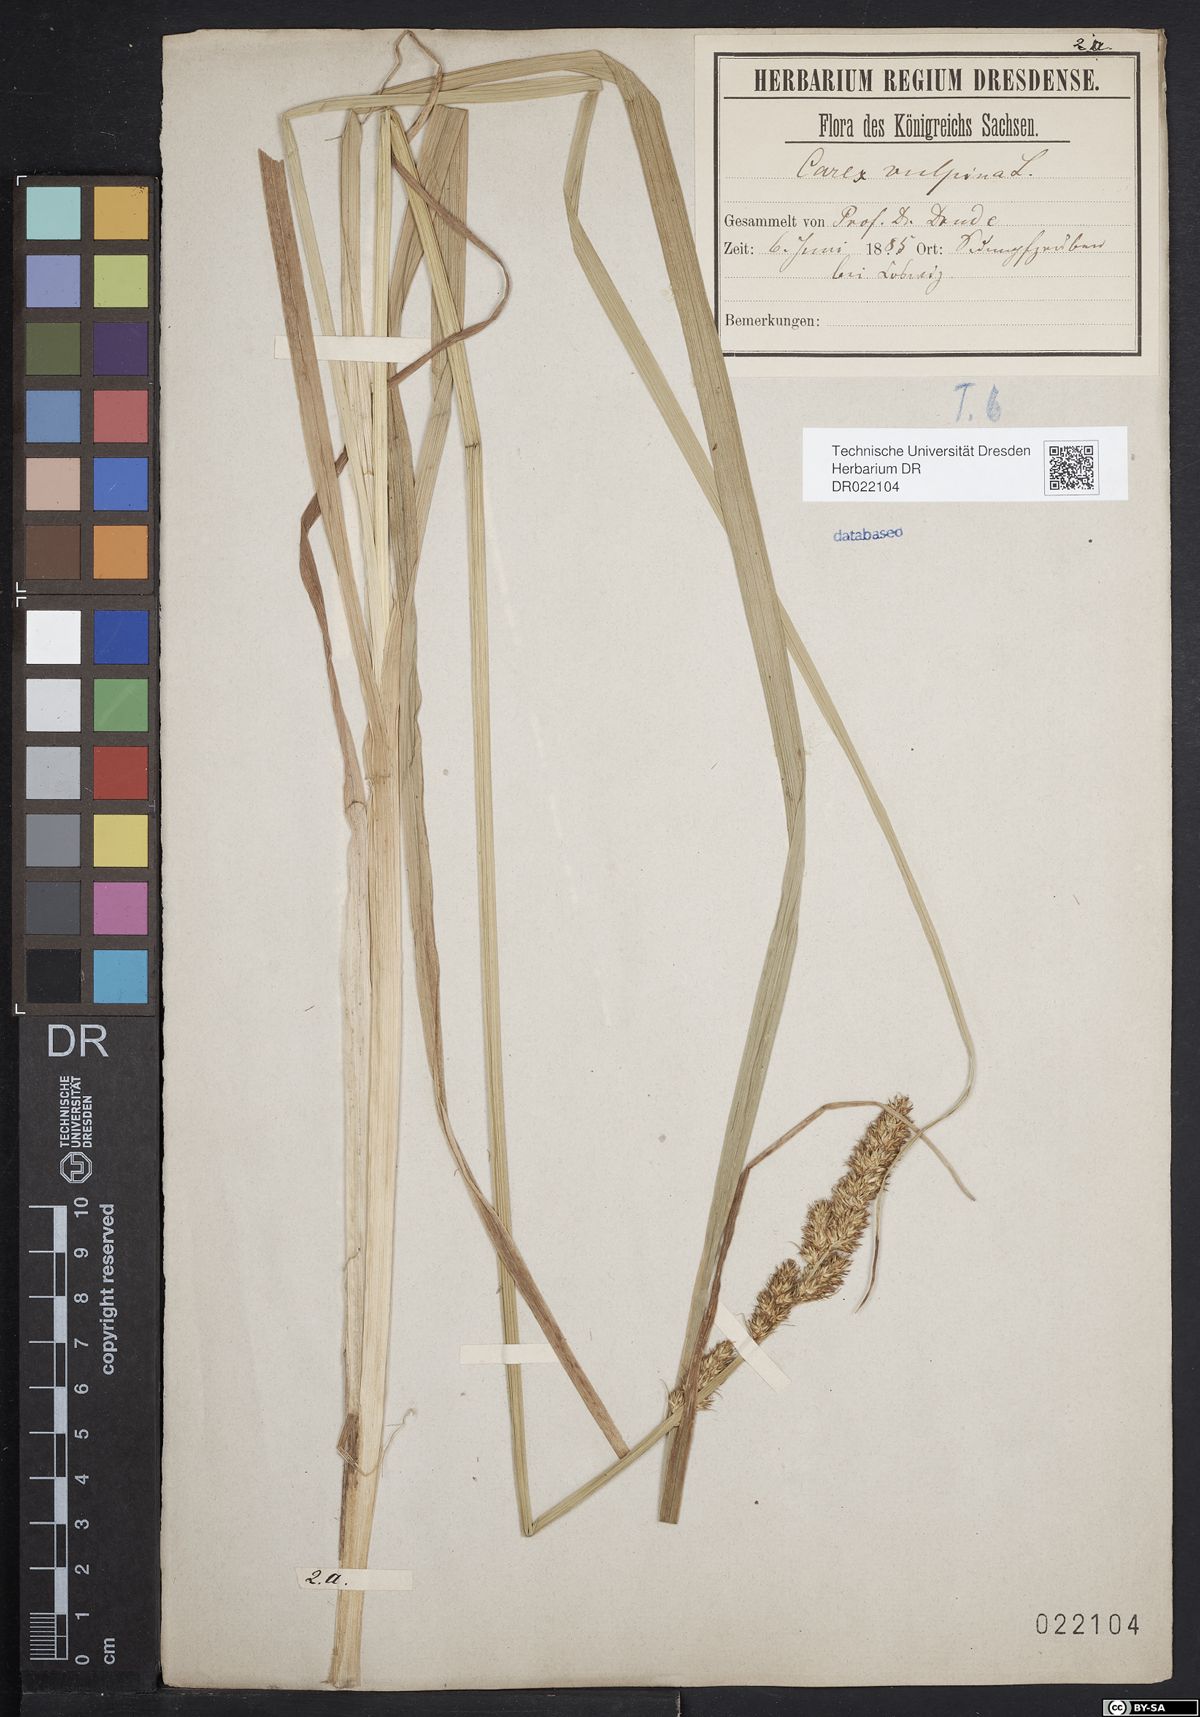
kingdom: Plantae
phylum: Tracheophyta
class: Liliopsida
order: Poales
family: Cyperaceae
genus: Carex
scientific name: Carex vulpina
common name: True fox-sedge
